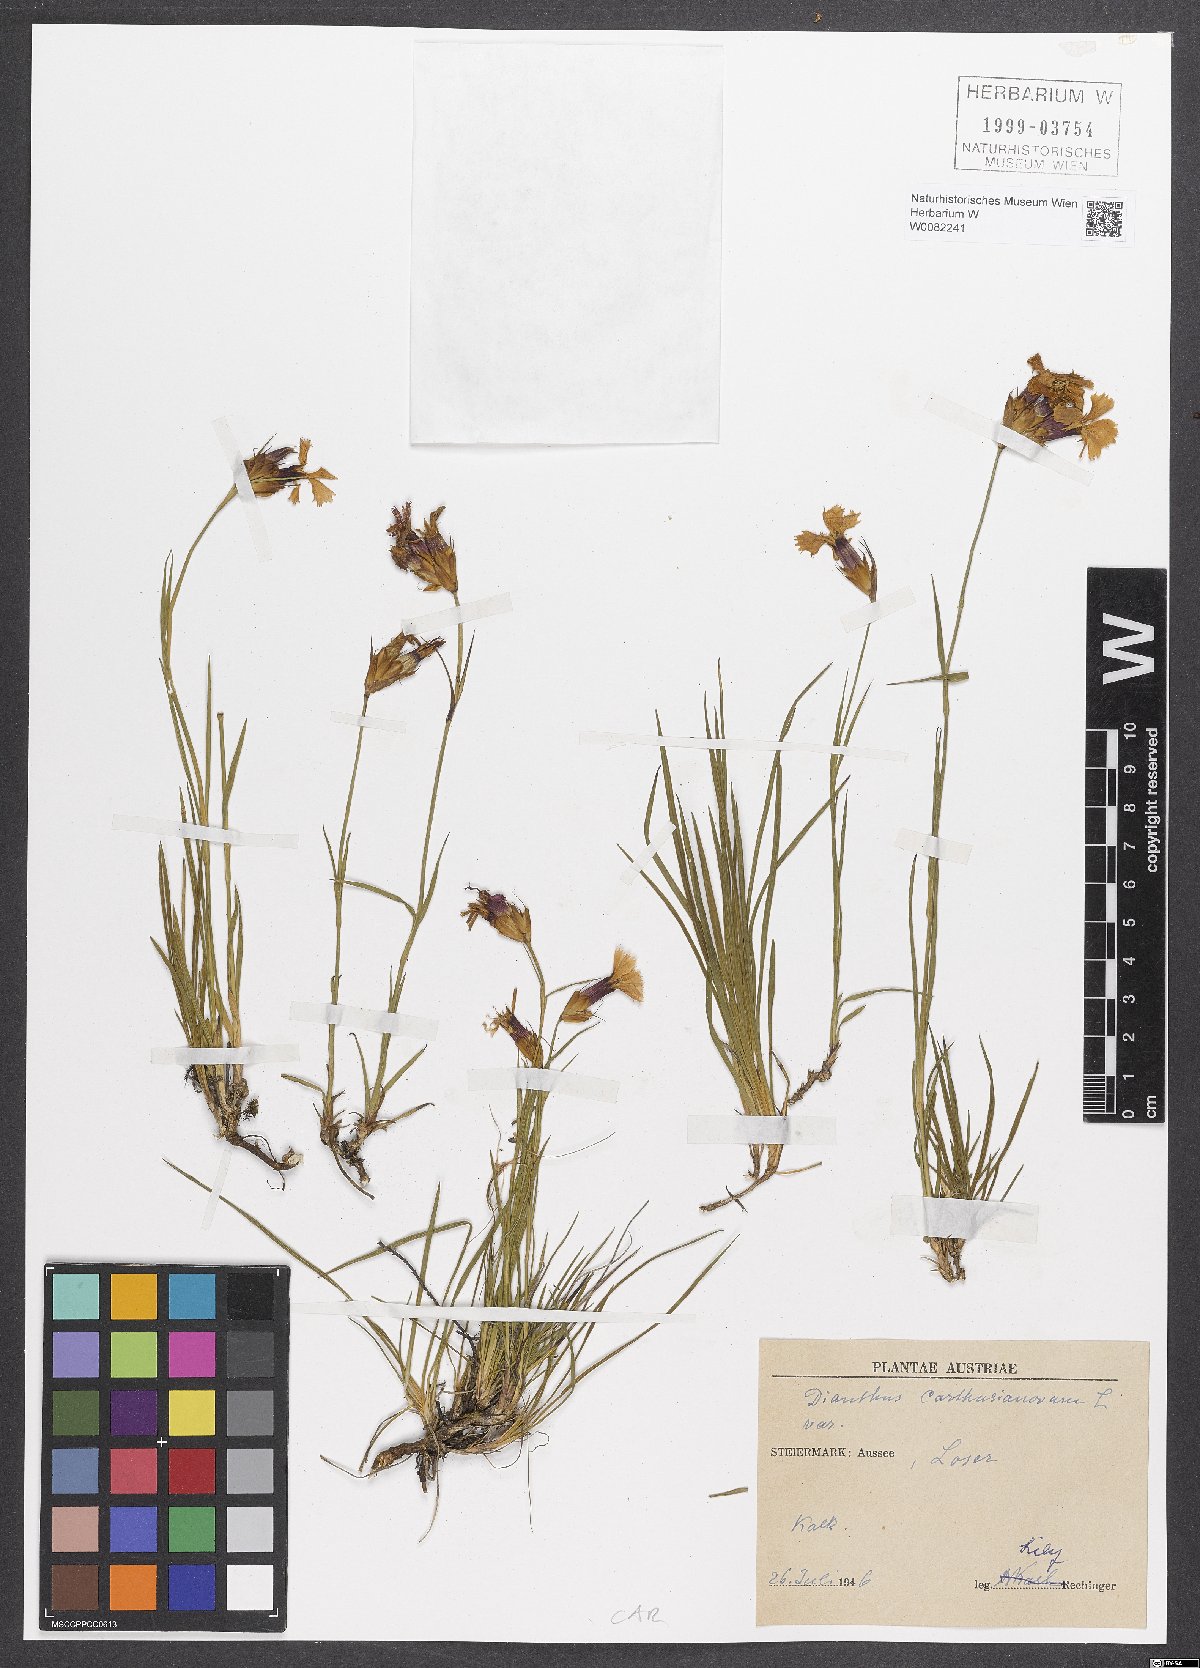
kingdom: Plantae
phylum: Tracheophyta
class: Magnoliopsida
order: Caryophyllales
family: Caryophyllaceae
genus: Dianthus
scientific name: Dianthus carthusianorum
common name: Carthusian pink
